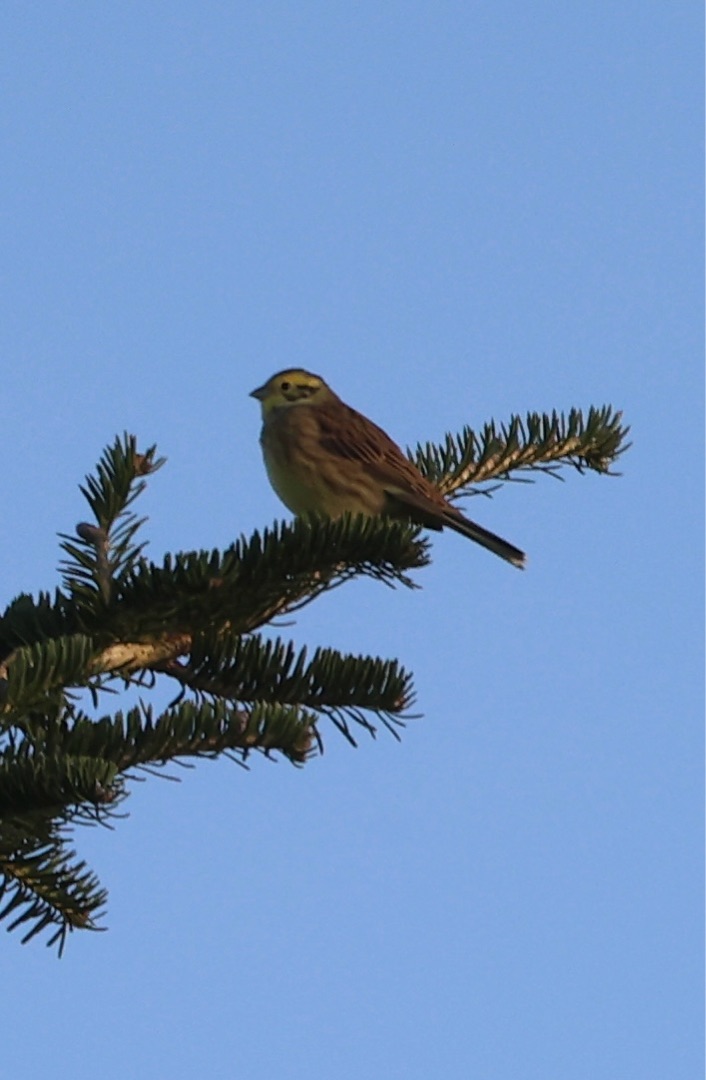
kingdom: Animalia
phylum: Chordata
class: Aves
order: Passeriformes
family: Emberizidae
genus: Emberiza
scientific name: Emberiza citrinella
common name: Gulspurv
